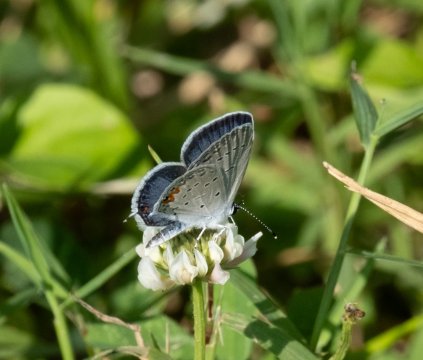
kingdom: Animalia
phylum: Arthropoda
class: Insecta
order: Lepidoptera
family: Lycaenidae
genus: Elkalyce
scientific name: Elkalyce comyntas
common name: Eastern Tailed-Blue
